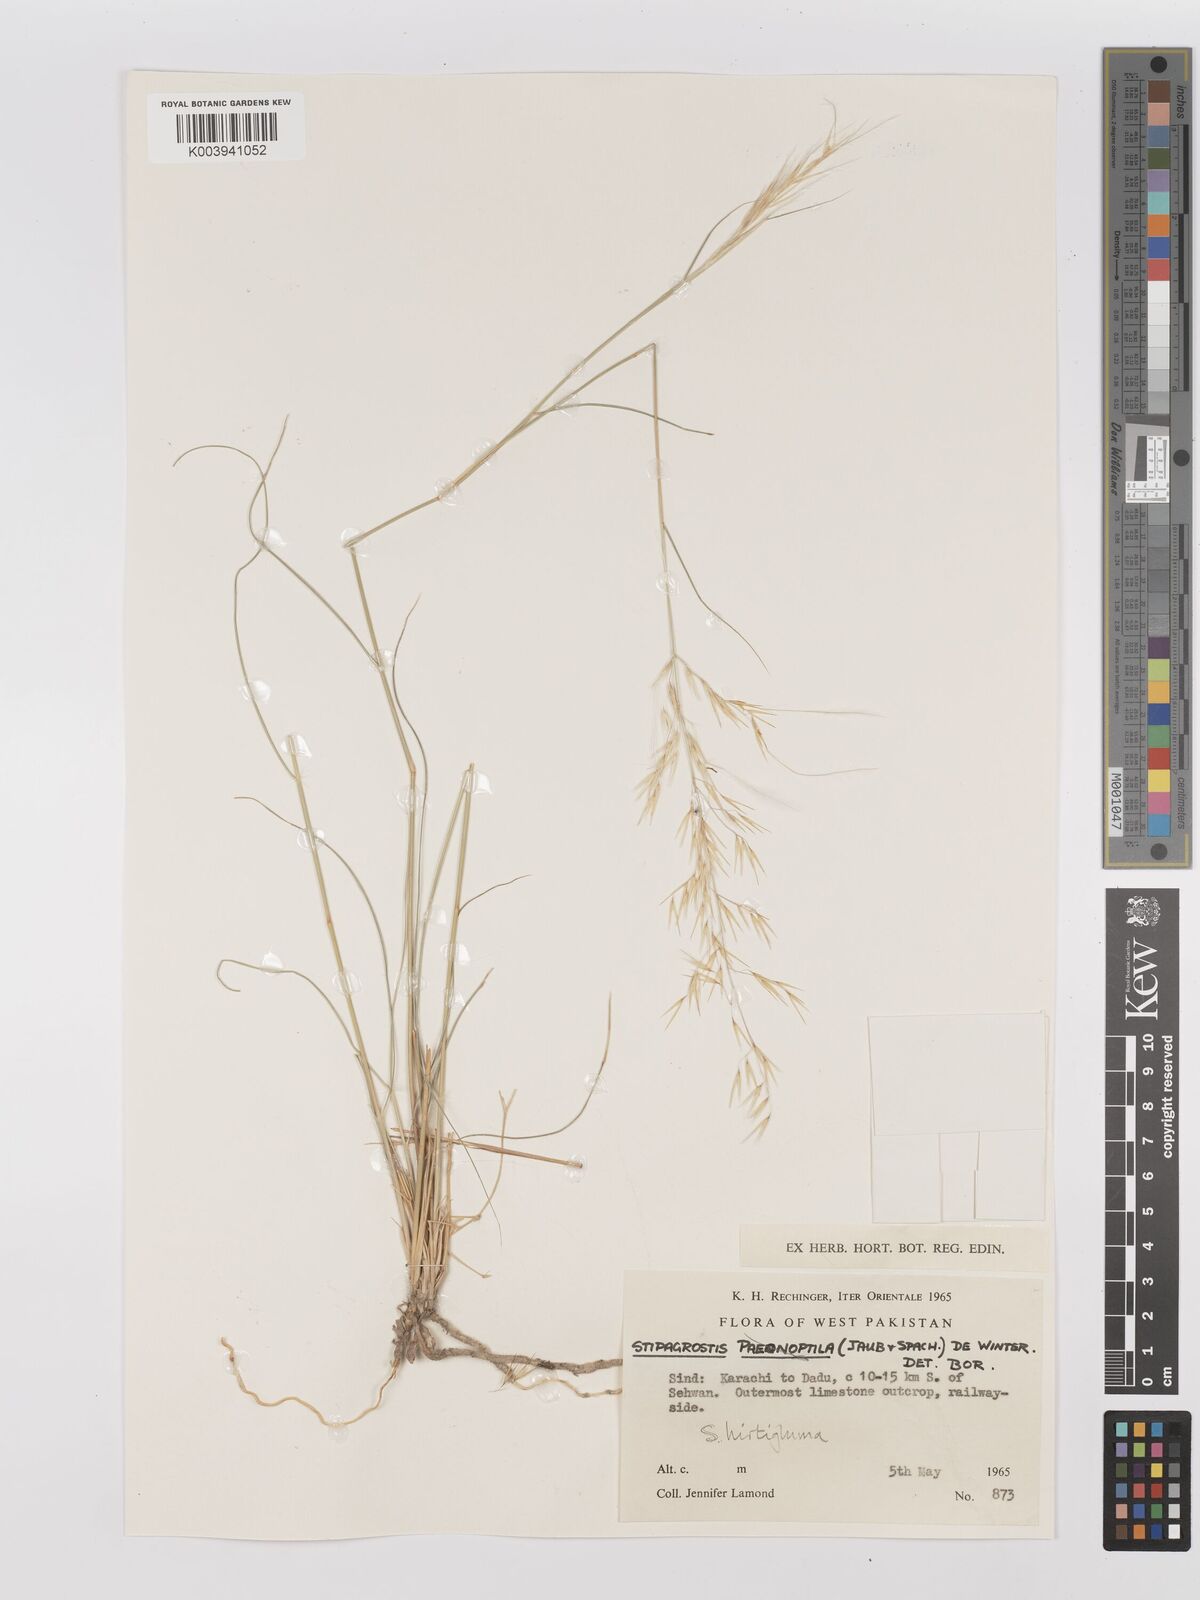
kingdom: Plantae
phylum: Tracheophyta
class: Liliopsida
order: Poales
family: Poaceae
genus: Stipagrostis
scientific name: Stipagrostis hirtigluma
